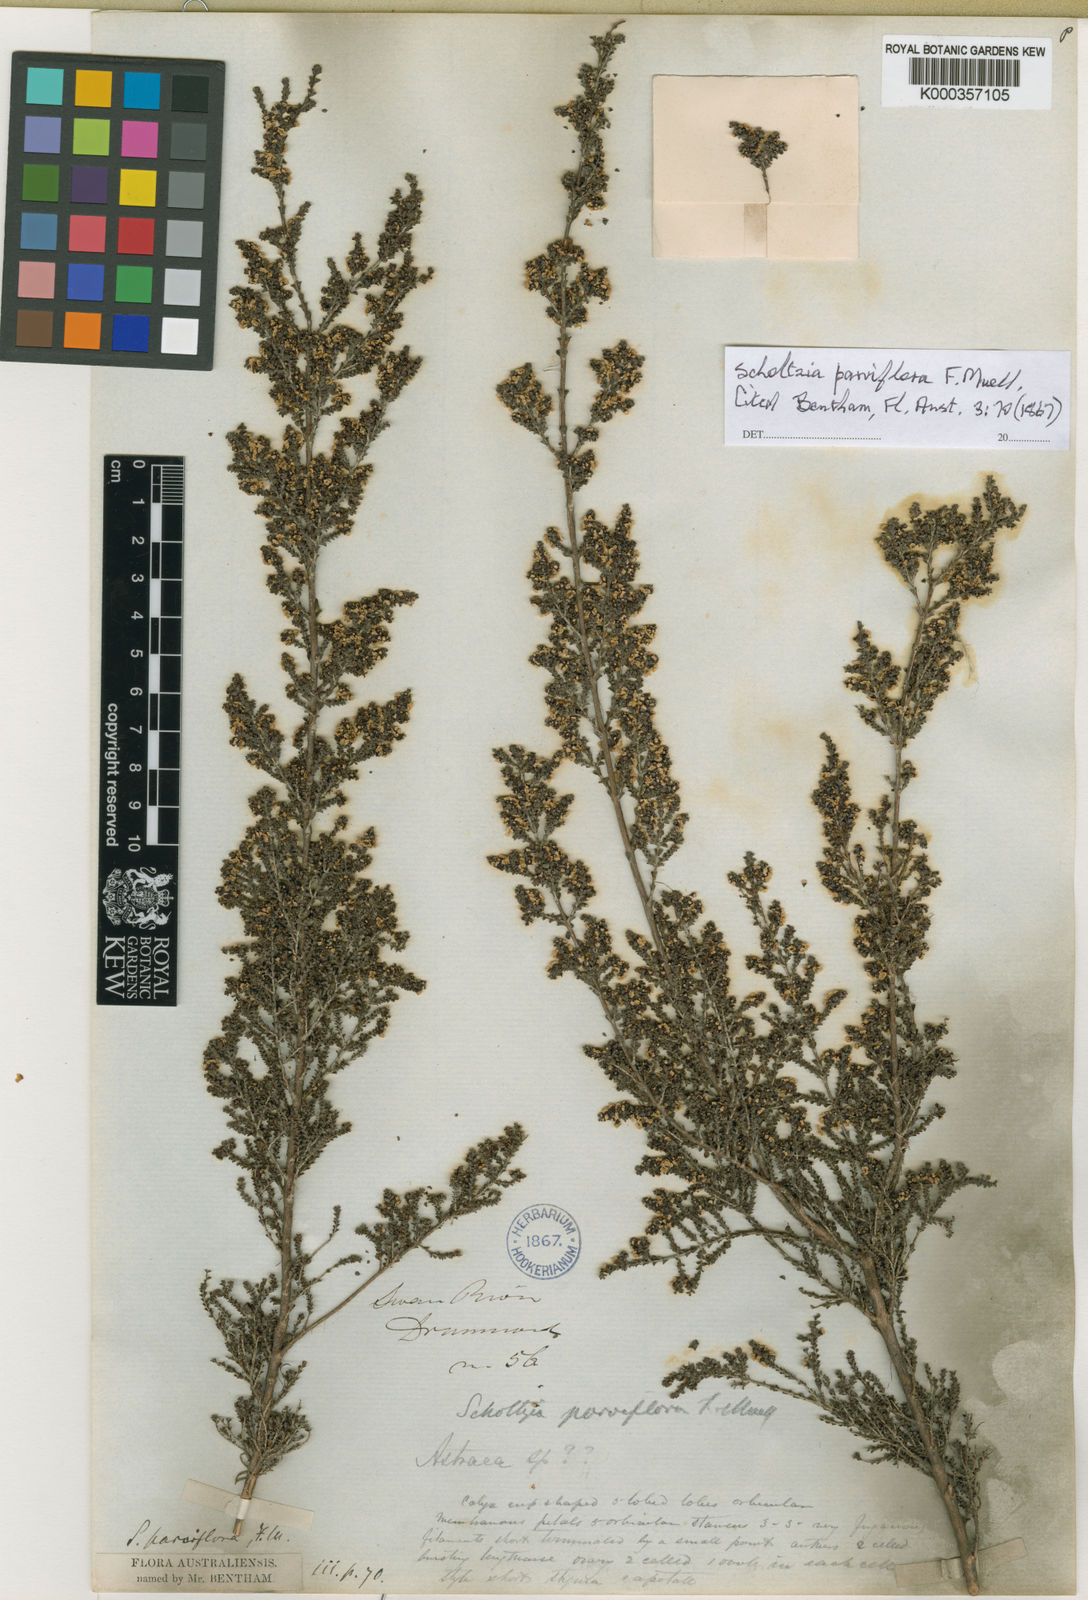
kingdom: Plantae
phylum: Tracheophyta
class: Magnoliopsida
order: Myrtales
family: Myrtaceae
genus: Scholtzia
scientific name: Scholtzia parviflora
